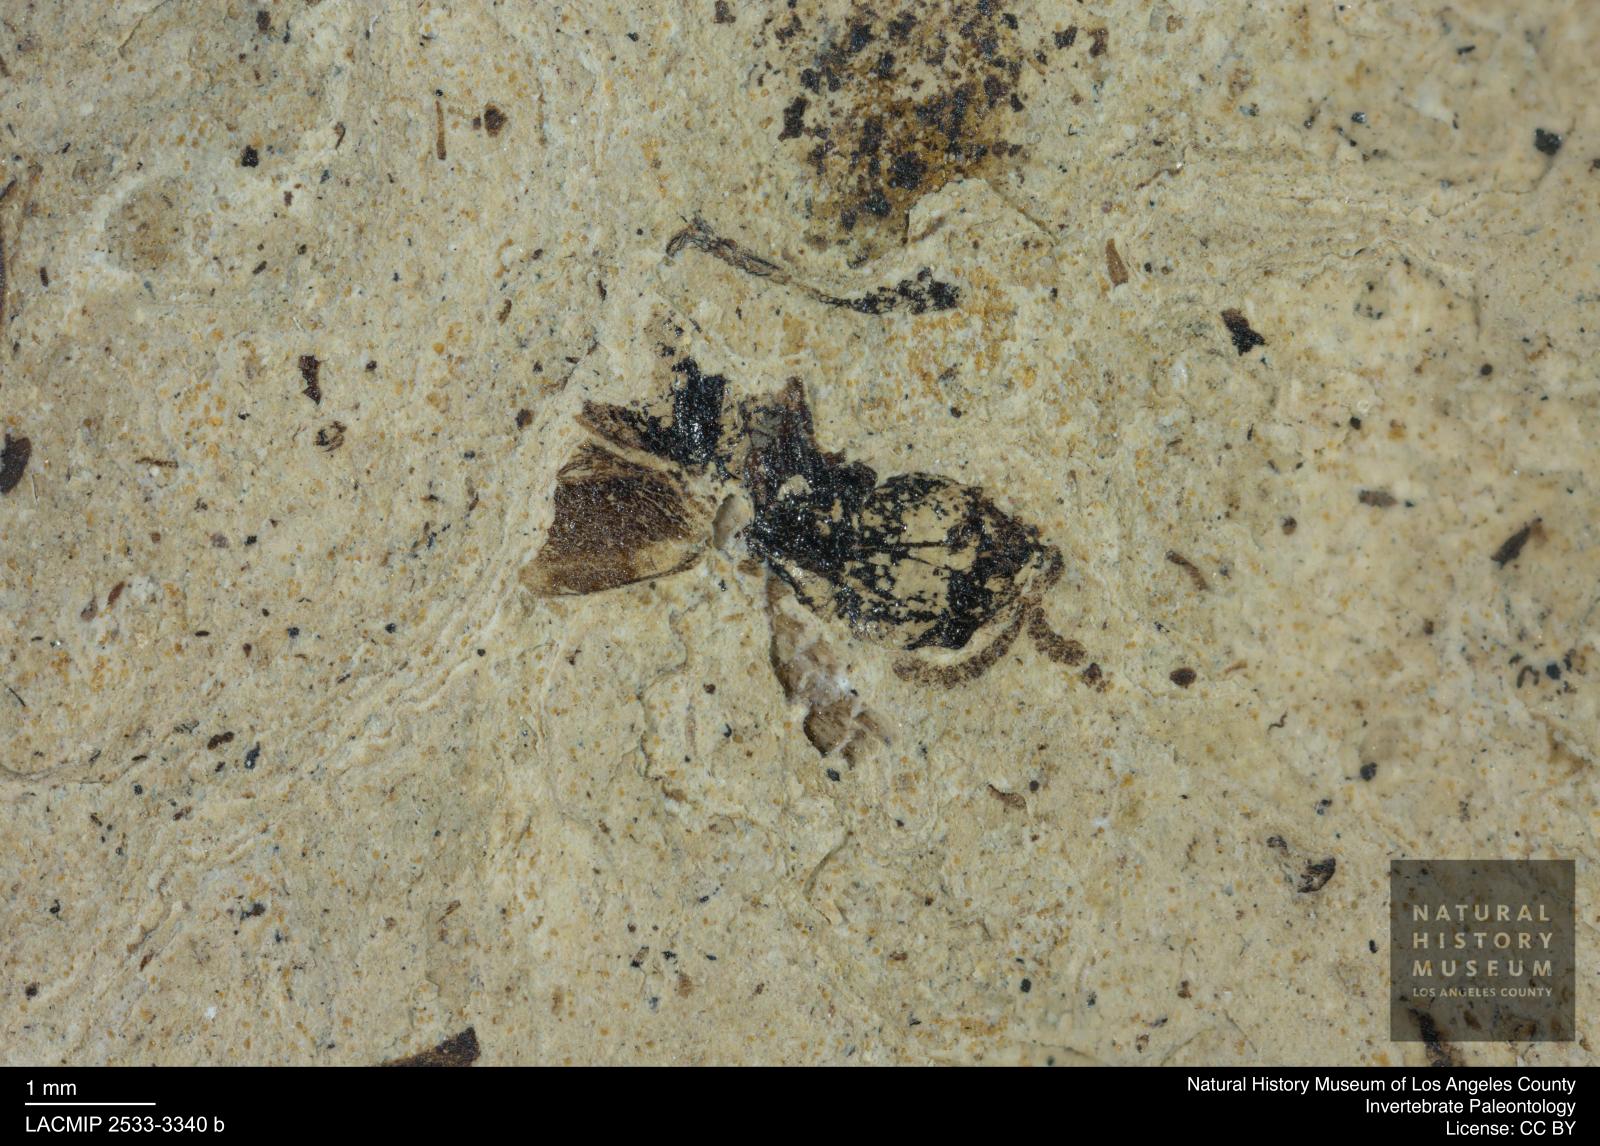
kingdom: Animalia
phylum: Arthropoda
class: Insecta
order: Coleoptera
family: Staphylinidae
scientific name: Staphylinidae
